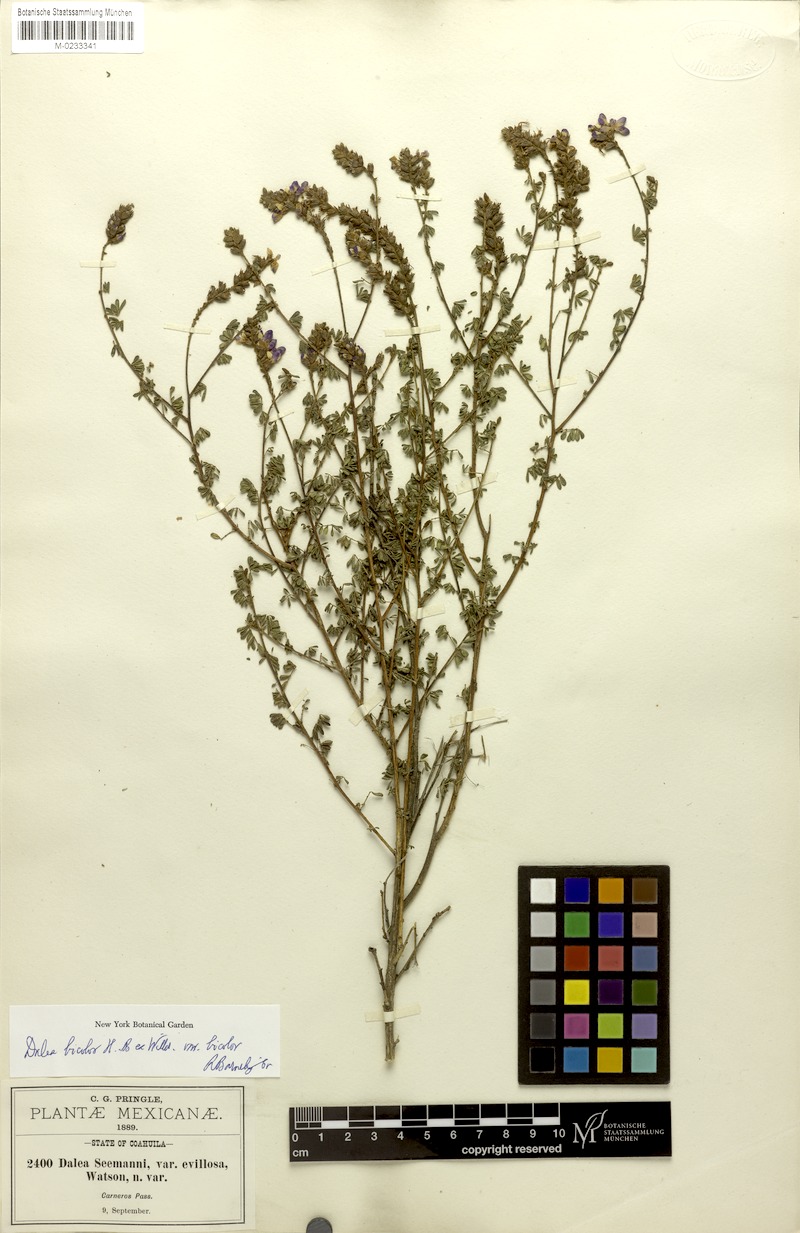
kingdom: Plantae
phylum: Tracheophyta
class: Magnoliopsida
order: Fabales
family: Fabaceae
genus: Dalea
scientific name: Dalea bicolor
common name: Silver prairie-clover
